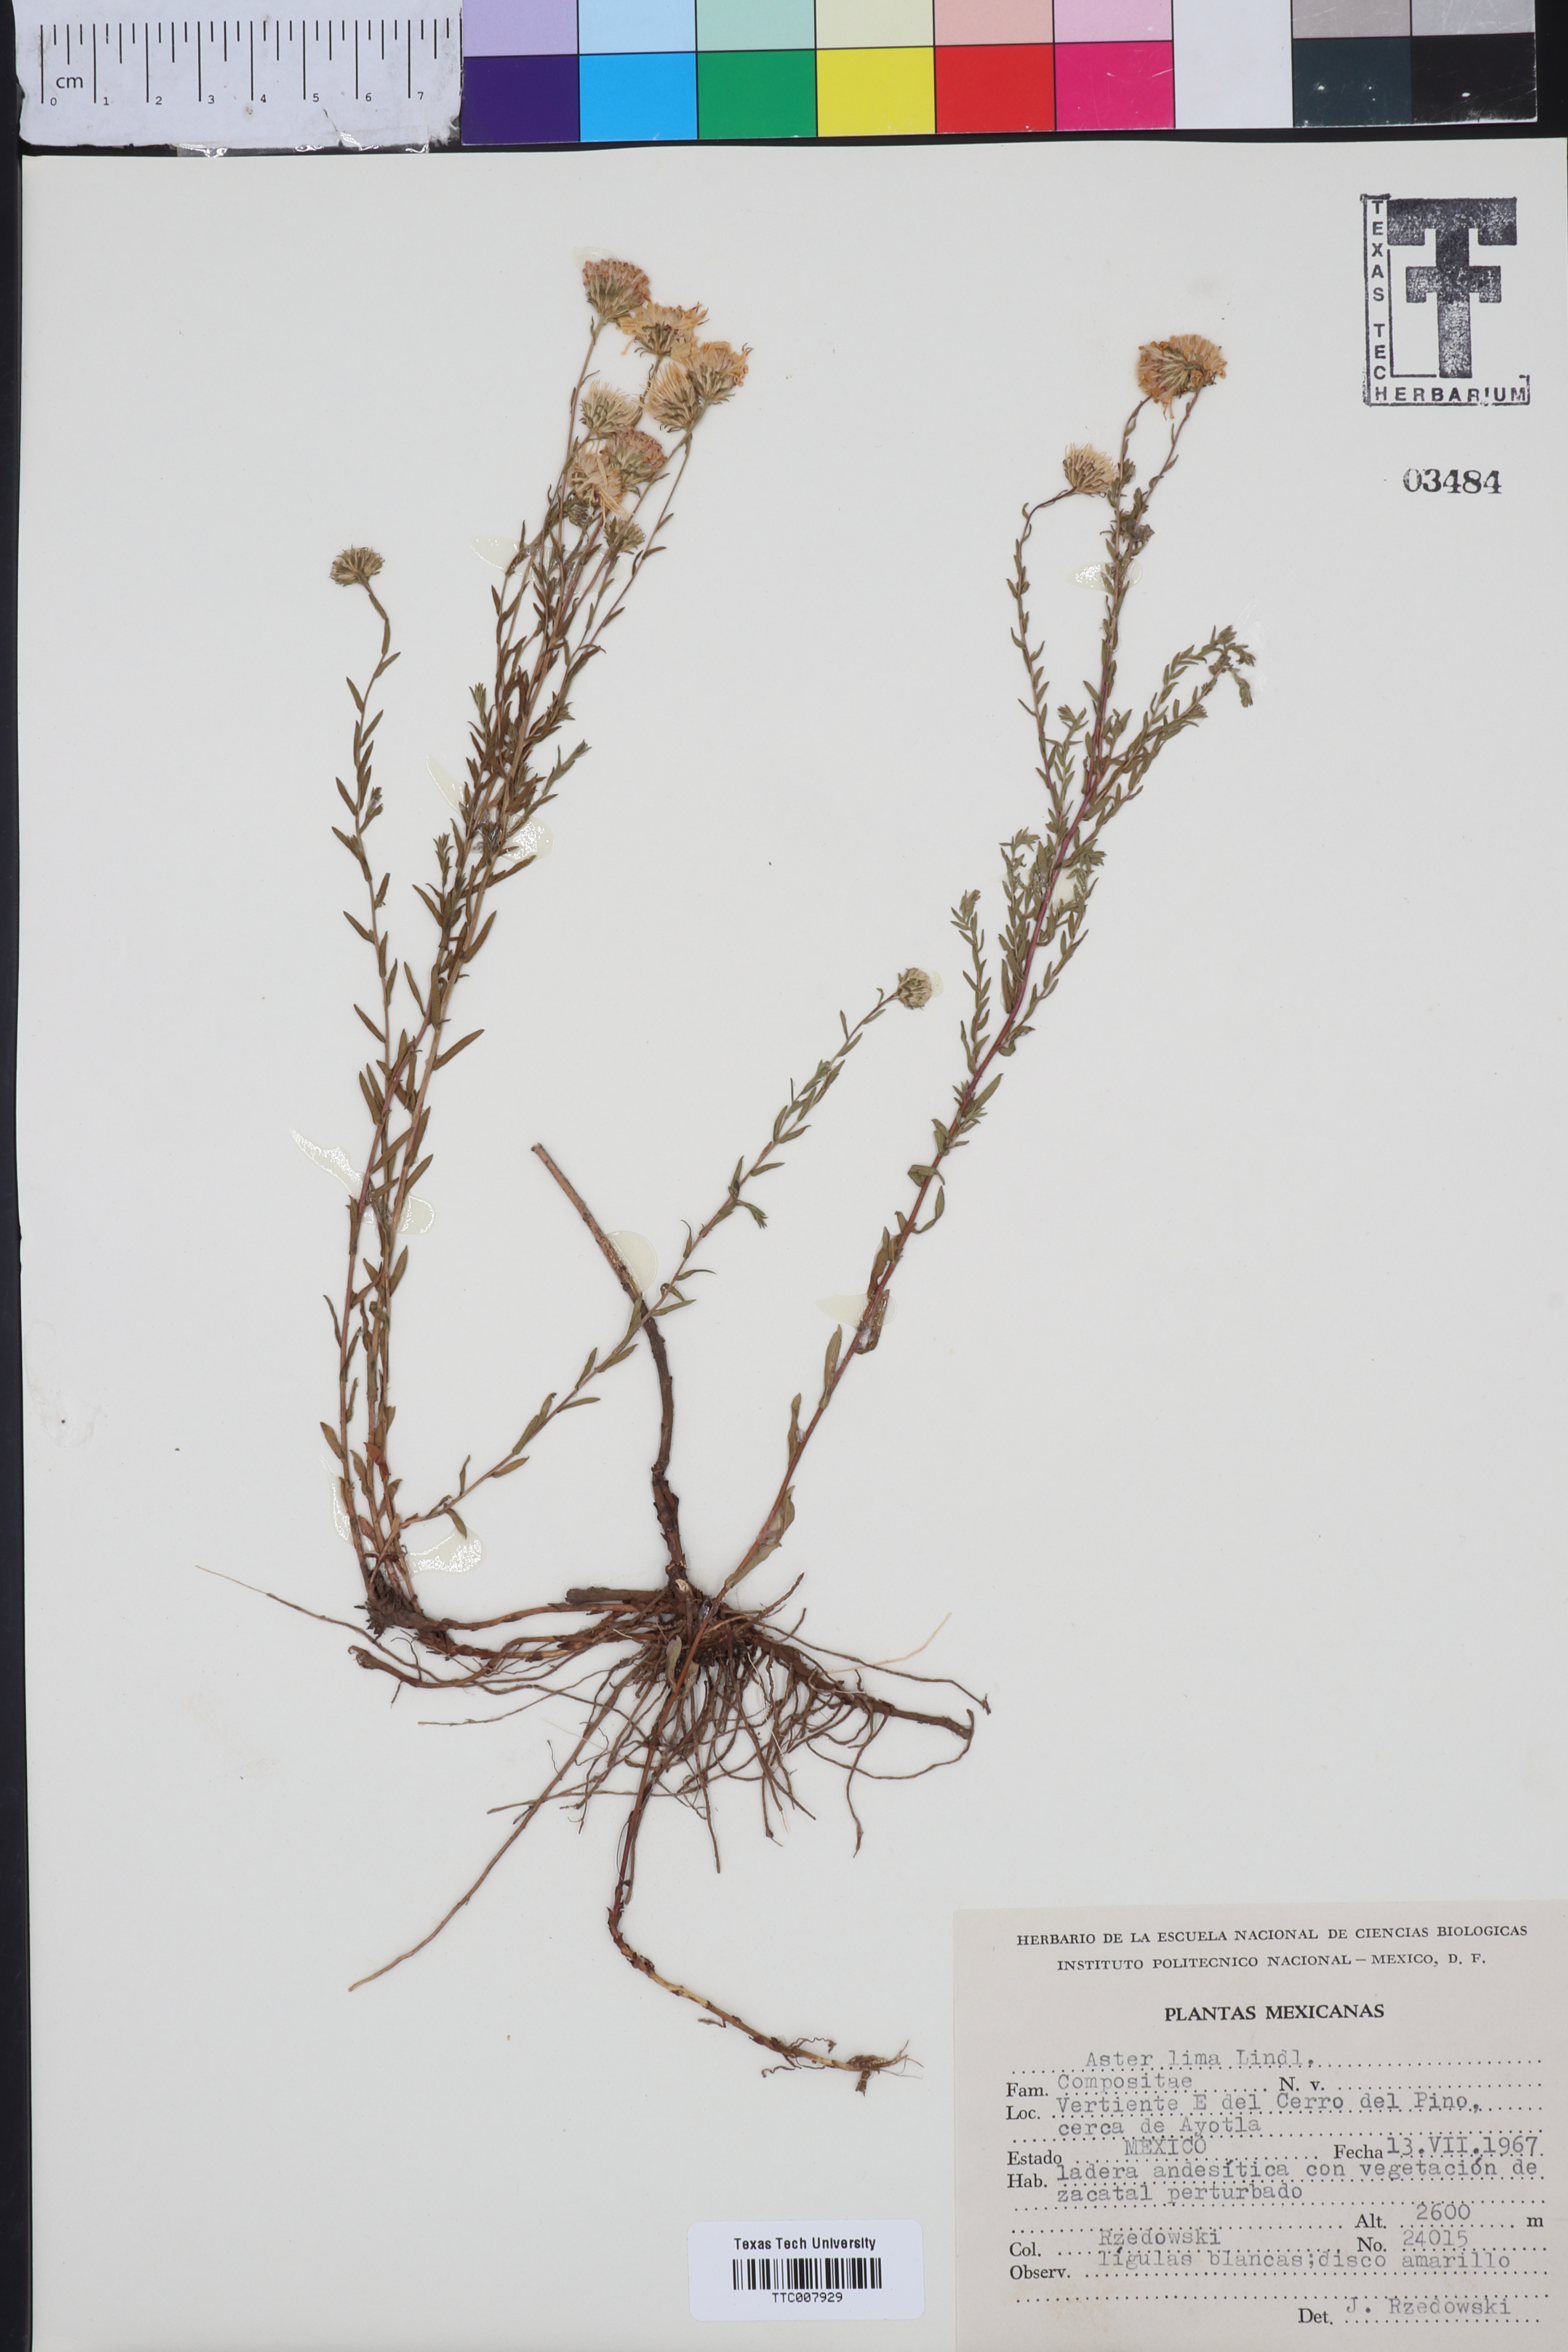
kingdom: Plantae
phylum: Tracheophyta
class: Magnoliopsida
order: Asterales
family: Asteraceae
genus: Symphyotrichum
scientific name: Symphyotrichum moranense
